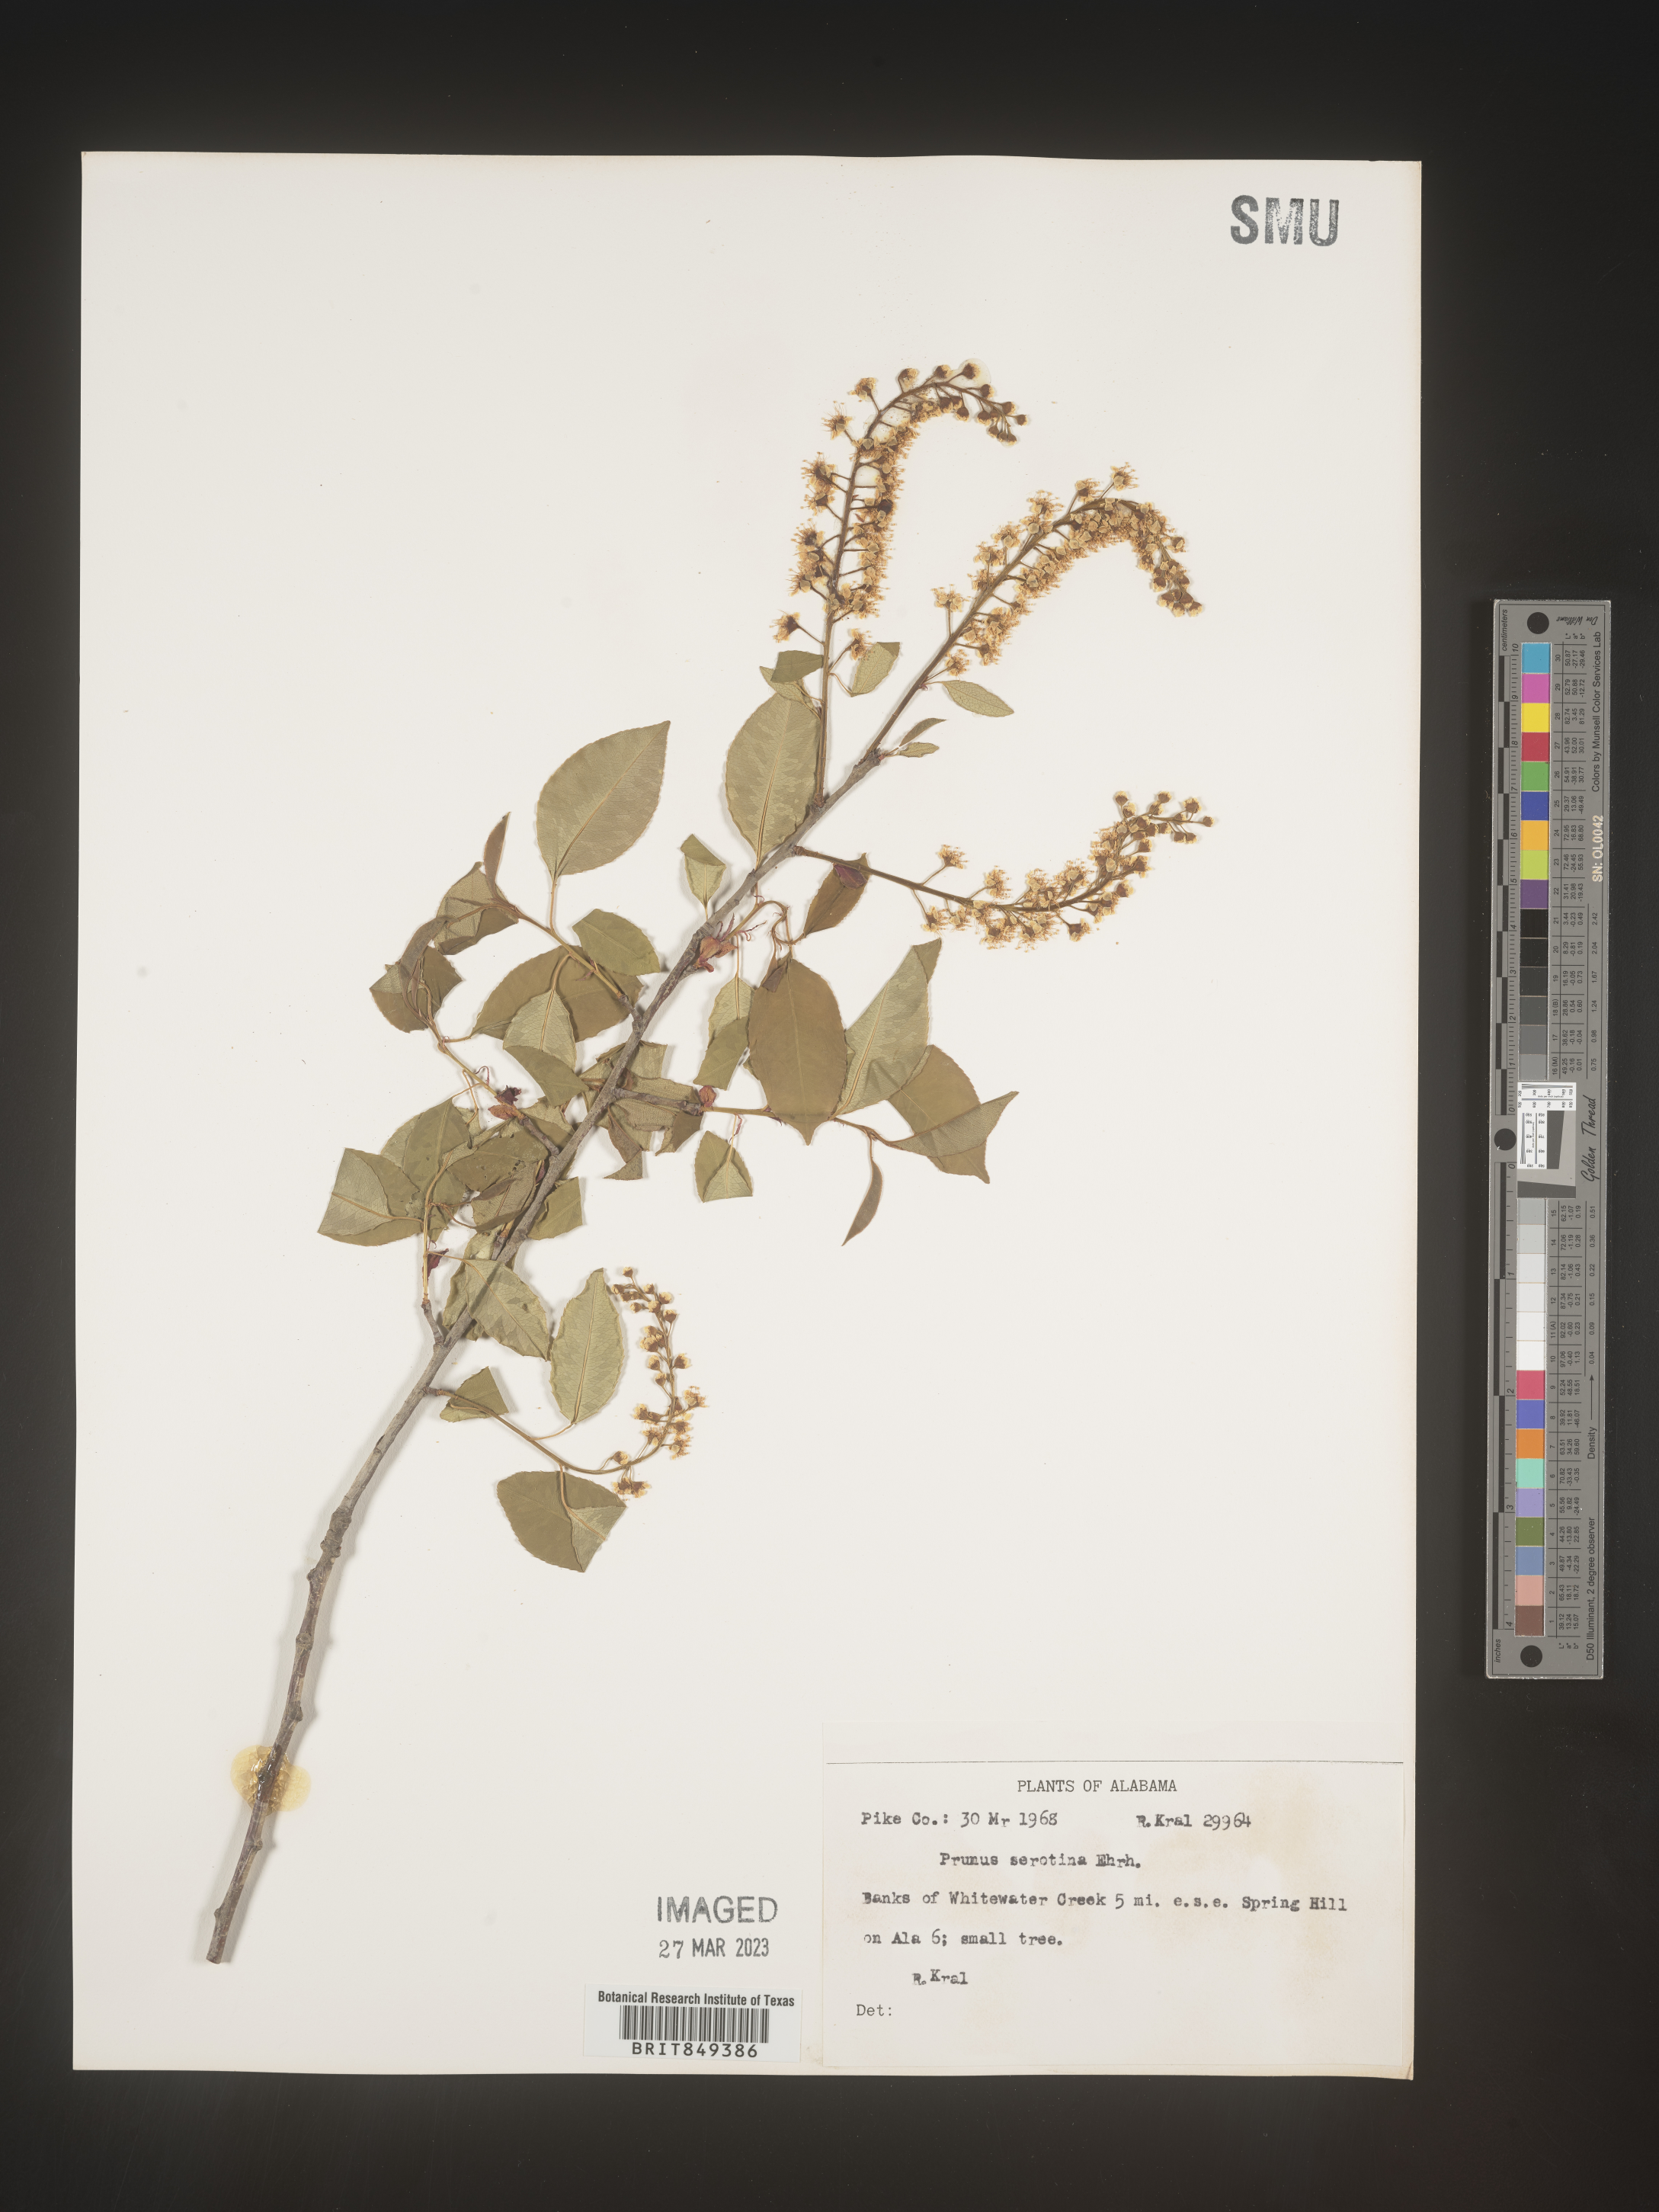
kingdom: Plantae
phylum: Tracheophyta
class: Magnoliopsida
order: Rosales
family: Rosaceae
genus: Prunus
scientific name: Prunus serotina
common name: Black cherry
